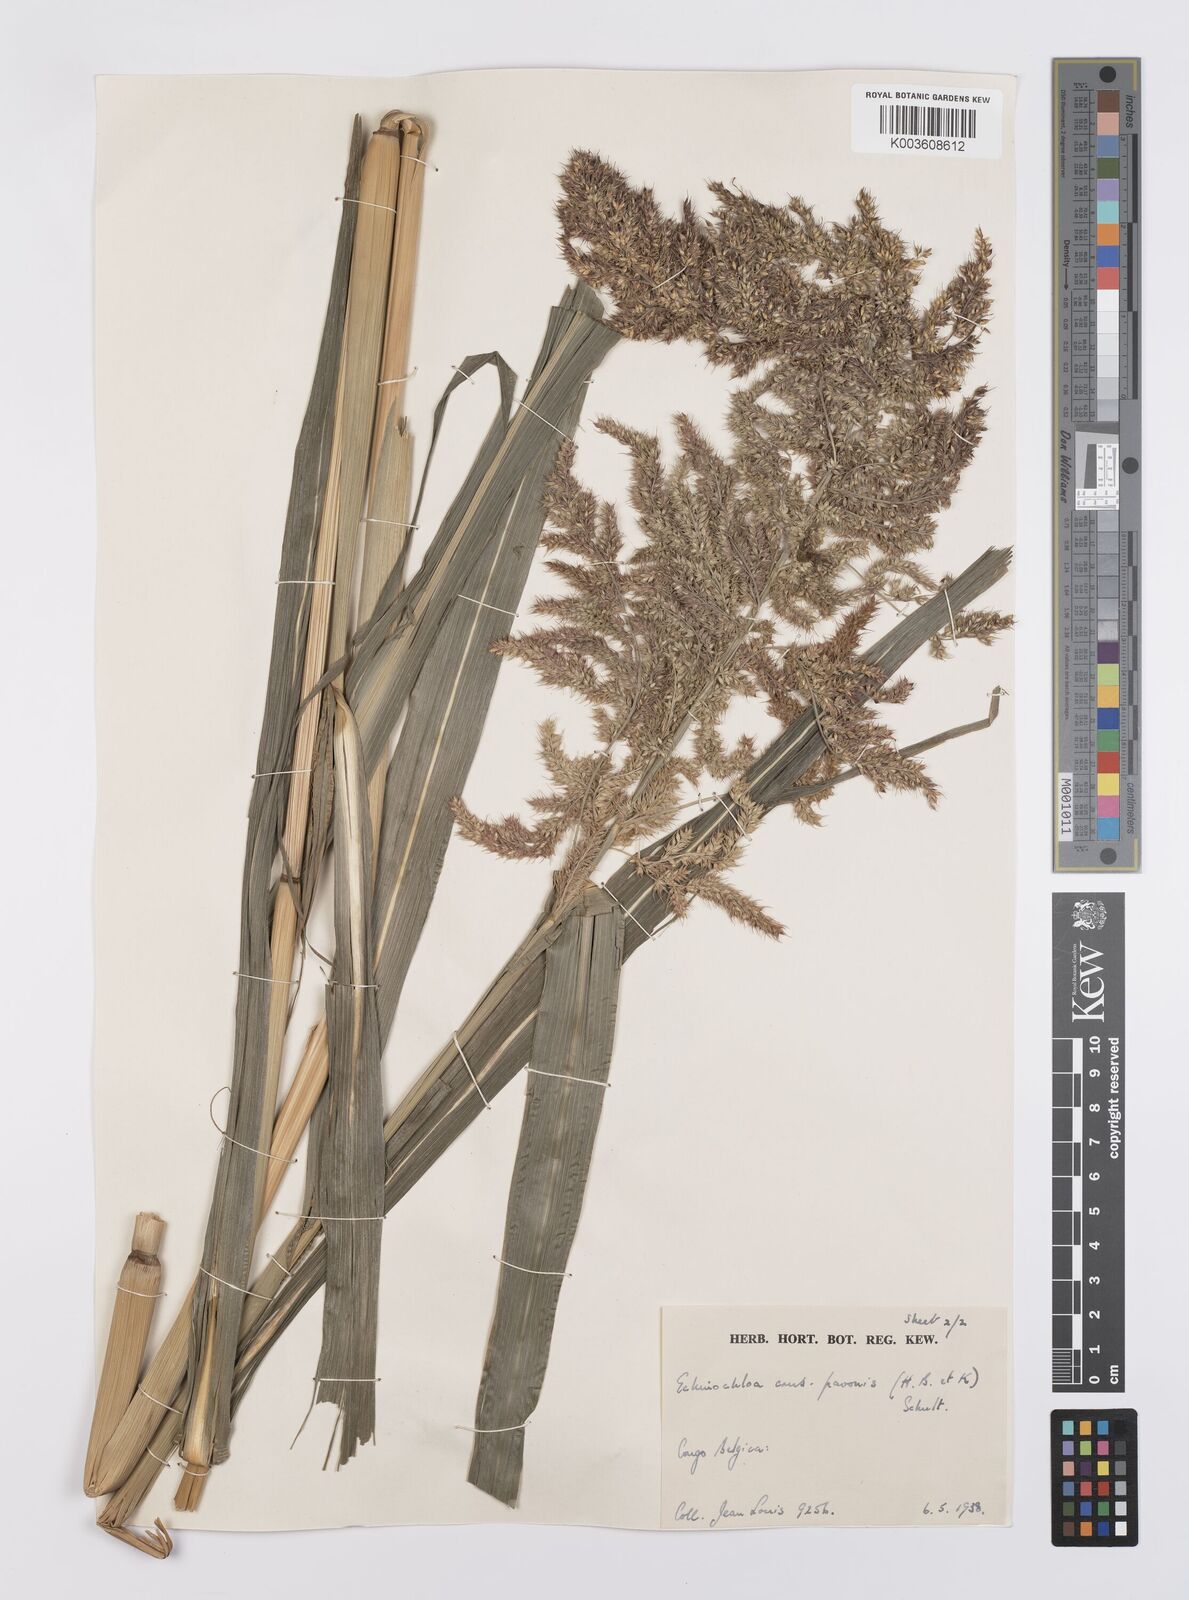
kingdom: Plantae
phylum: Tracheophyta
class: Liliopsida
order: Poales
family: Poaceae
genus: Echinochloa
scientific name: Echinochloa crus-pavonis
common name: Gulf cockspur grass
